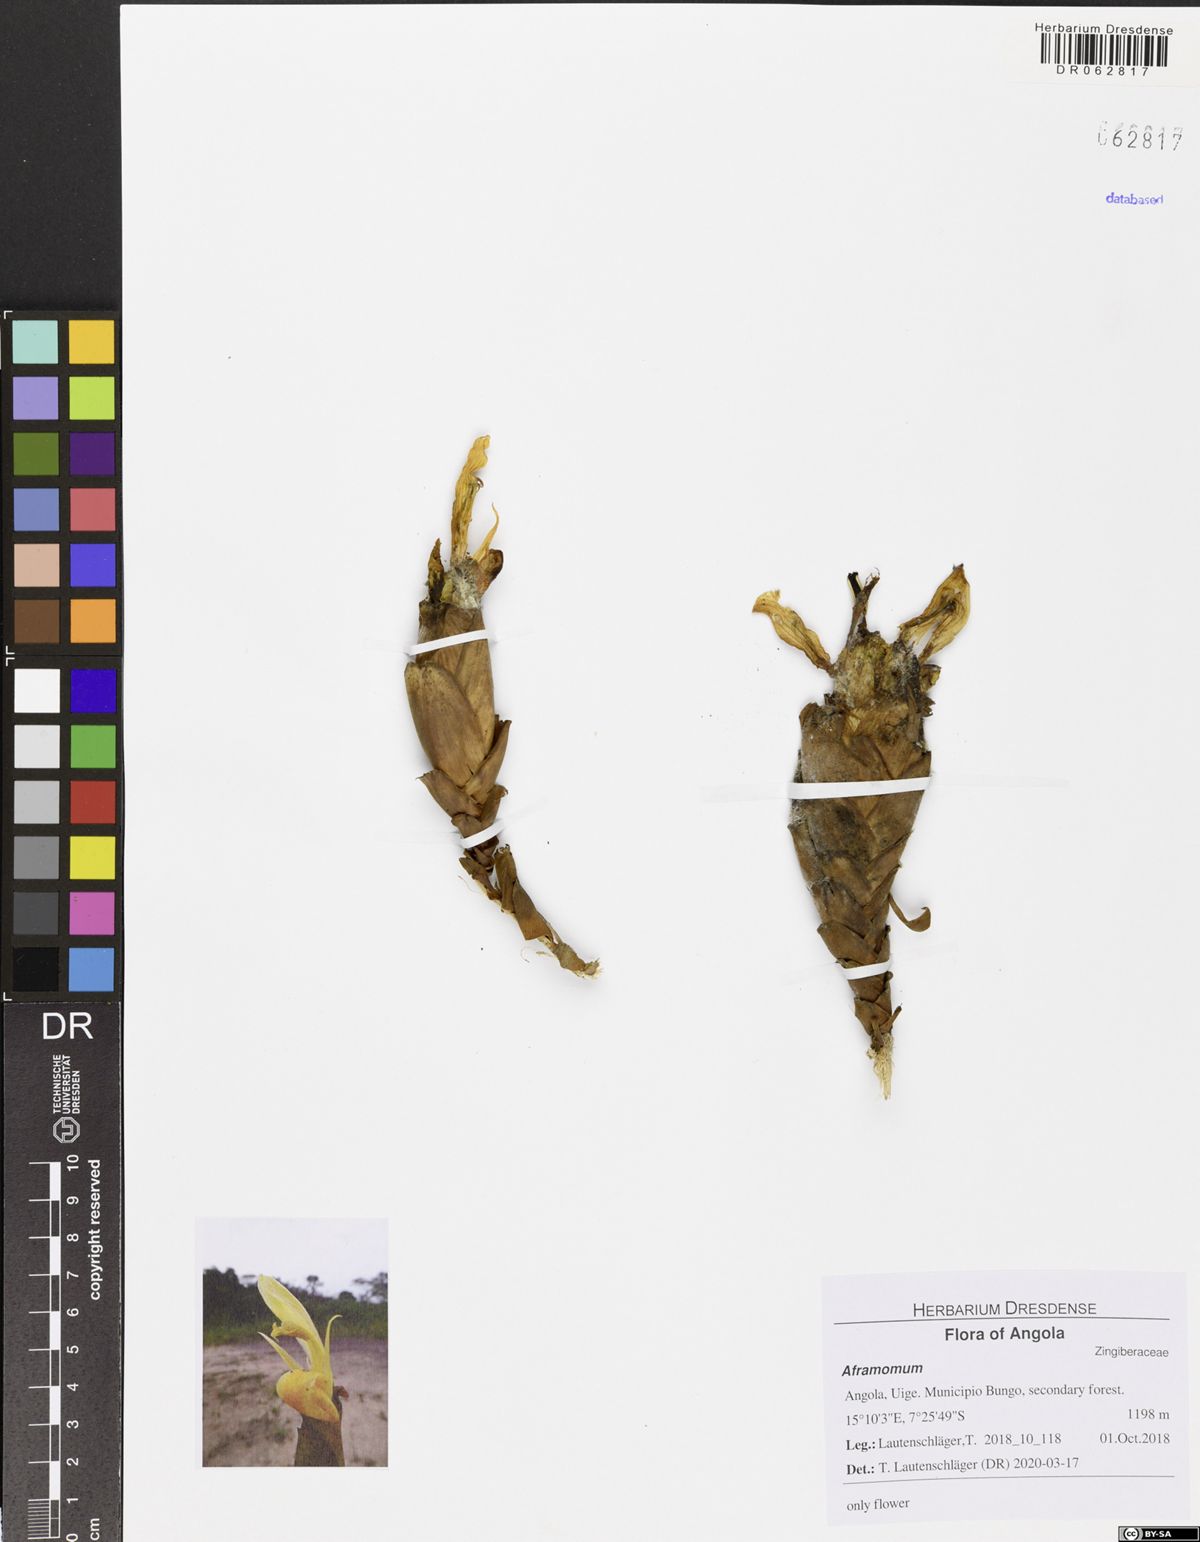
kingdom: Plantae
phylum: Tracheophyta
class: Liliopsida
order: Zingiberales
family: Zingiberaceae
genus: Aframomum
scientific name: Aframomum daniellii
